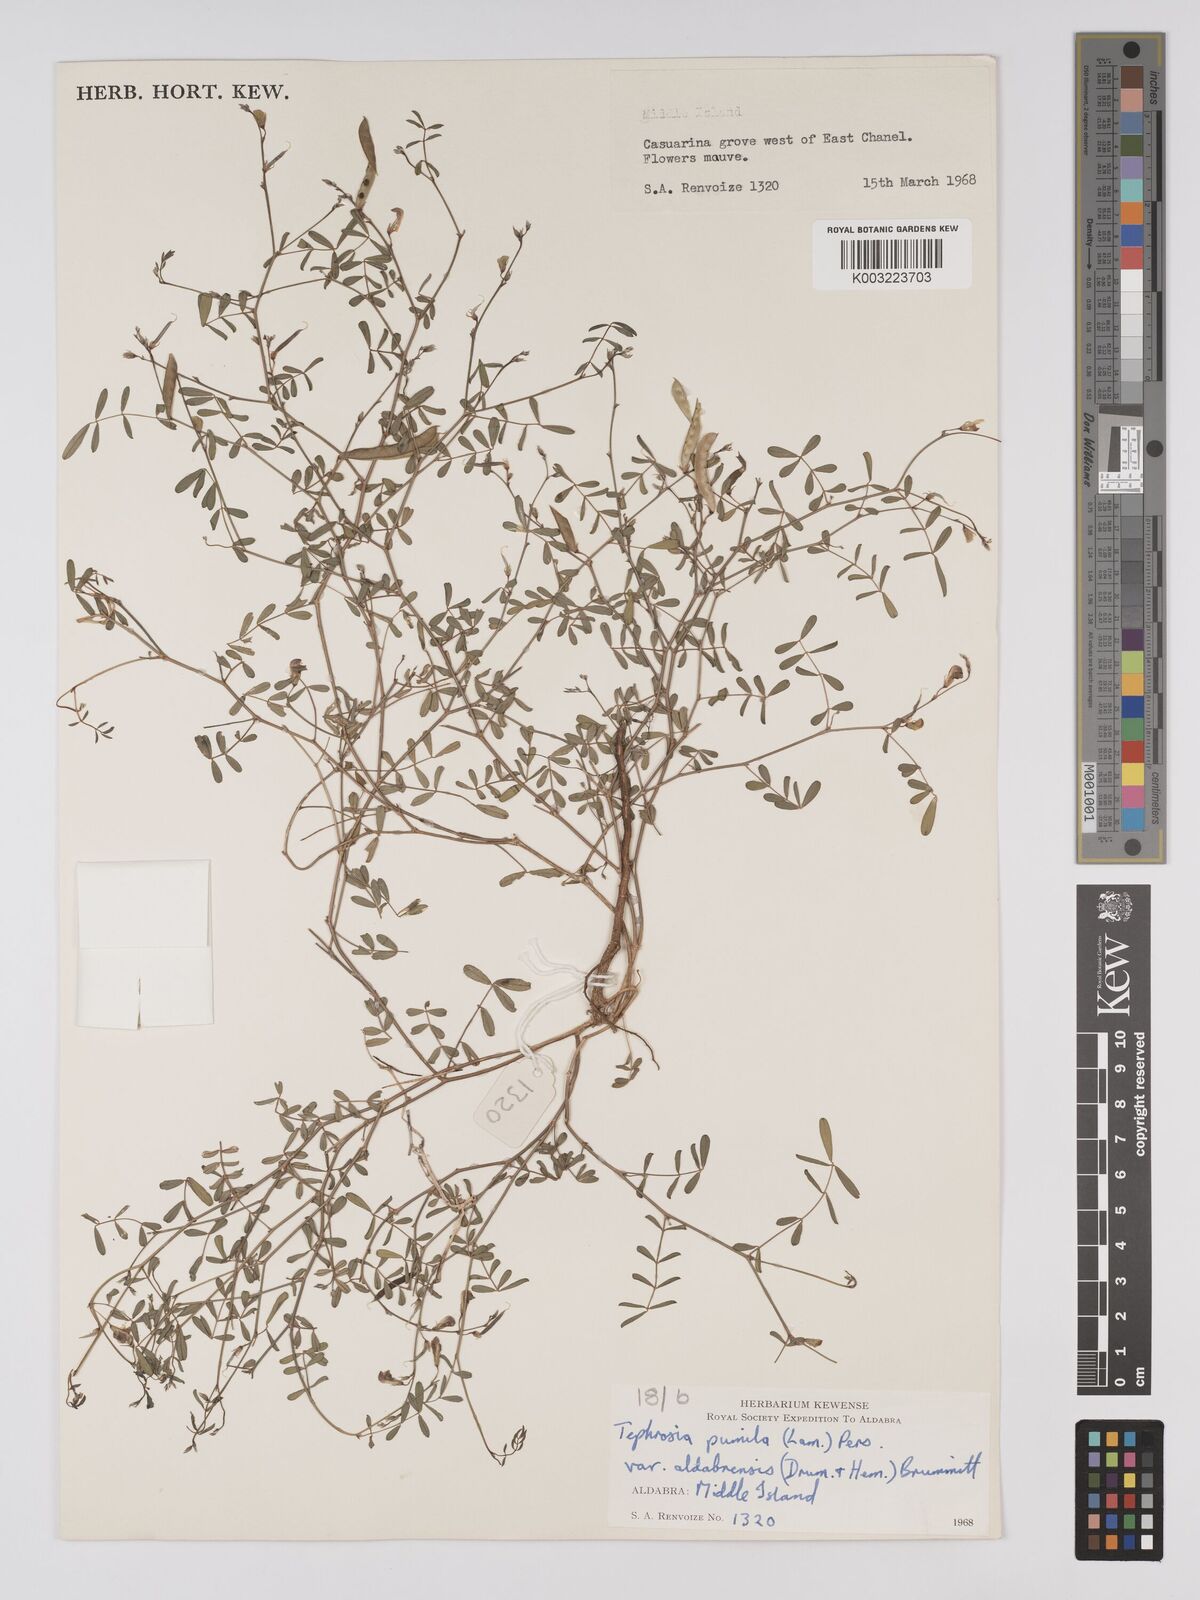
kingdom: Plantae
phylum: Tracheophyta
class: Magnoliopsida
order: Fabales
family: Fabaceae
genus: Tephrosia
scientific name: Tephrosia pumila
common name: Indigo sauvage
